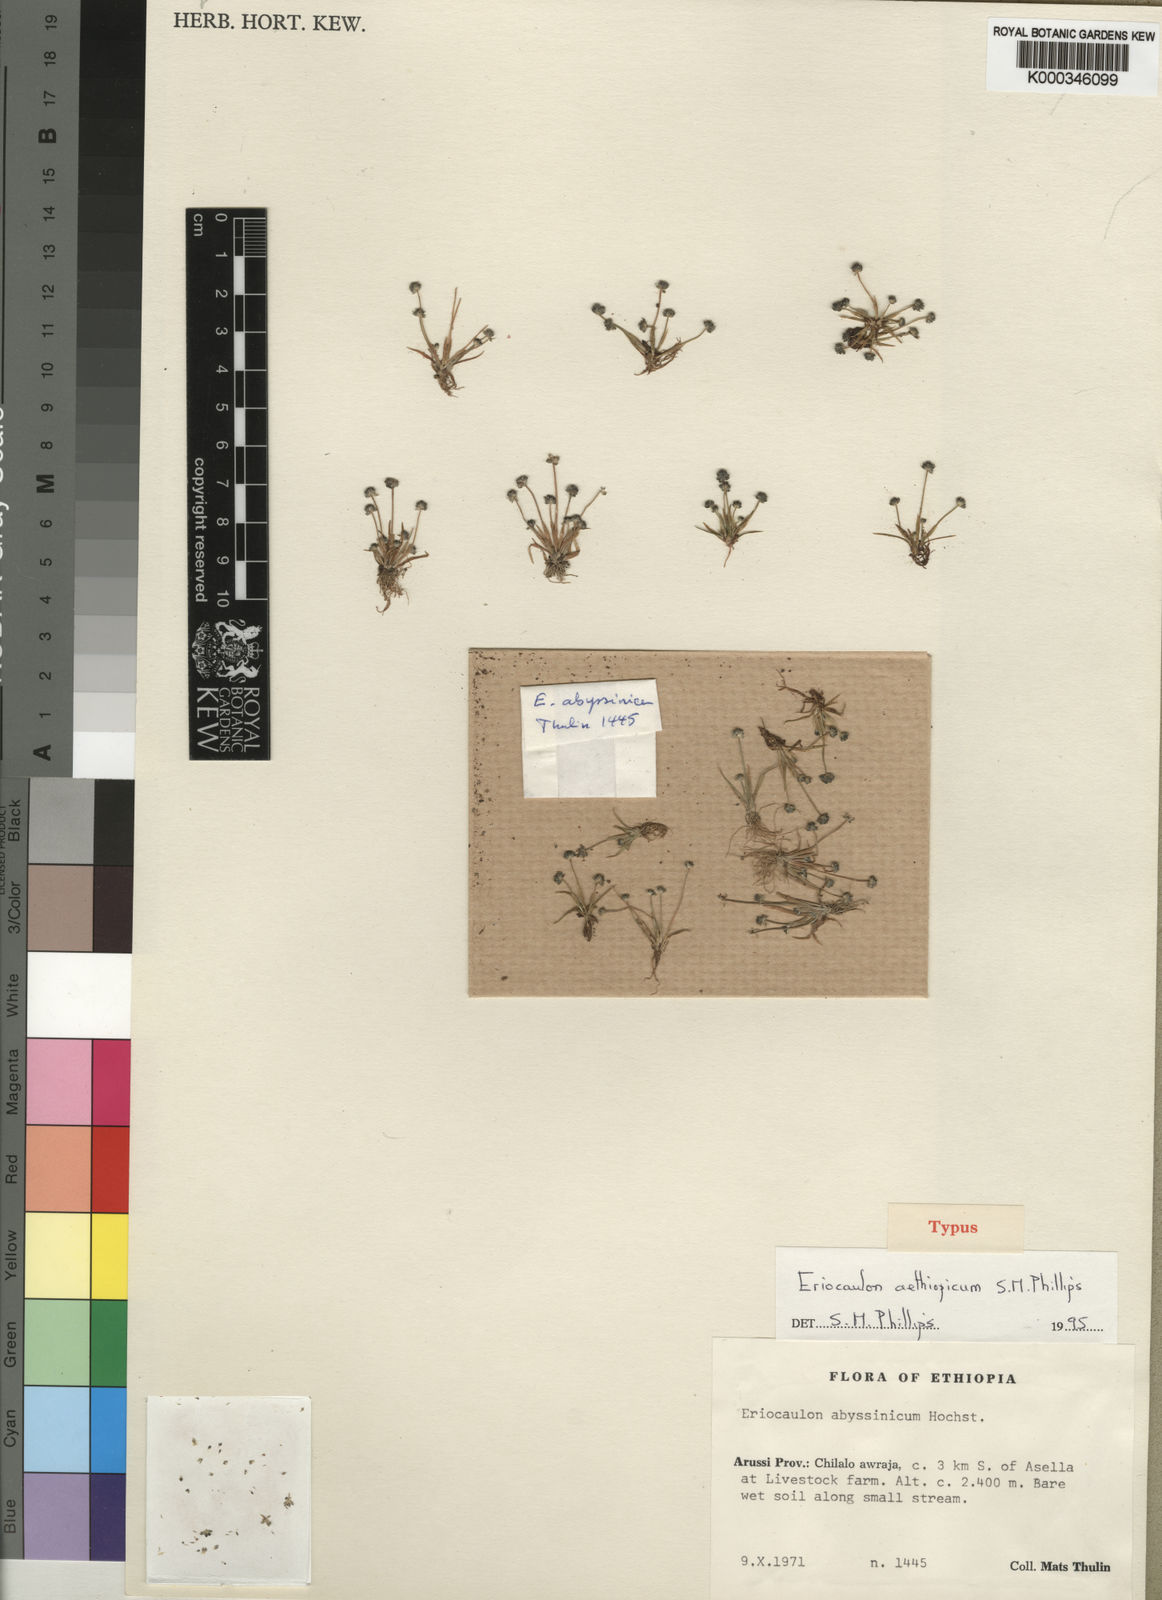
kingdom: Plantae
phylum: Tracheophyta
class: Liliopsida
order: Poales
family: Eriocaulaceae
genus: Eriocaulon
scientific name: Eriocaulon aethiopicum
